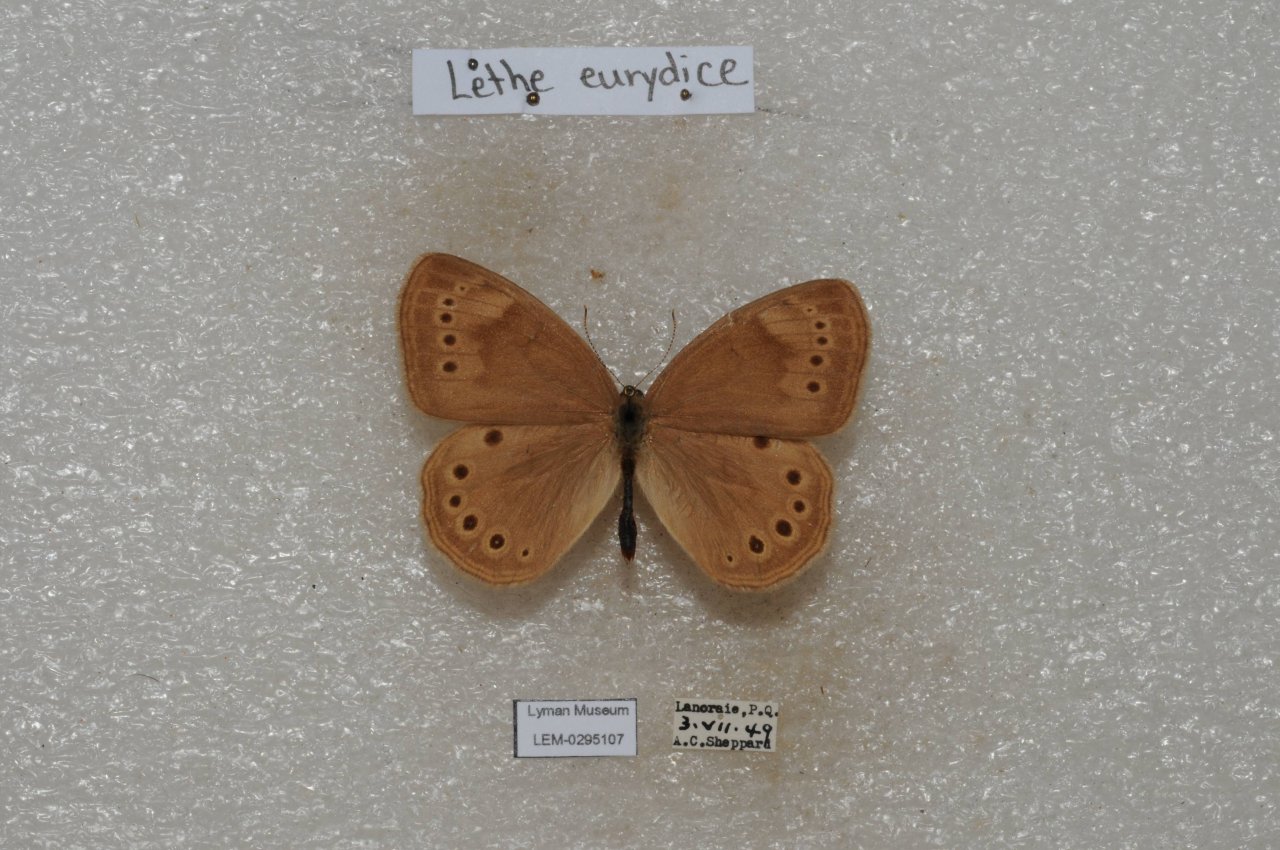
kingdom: Animalia
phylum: Arthropoda
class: Insecta
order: Lepidoptera
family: Nymphalidae
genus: Lethe
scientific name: Lethe eurydice
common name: Eyed Brown
